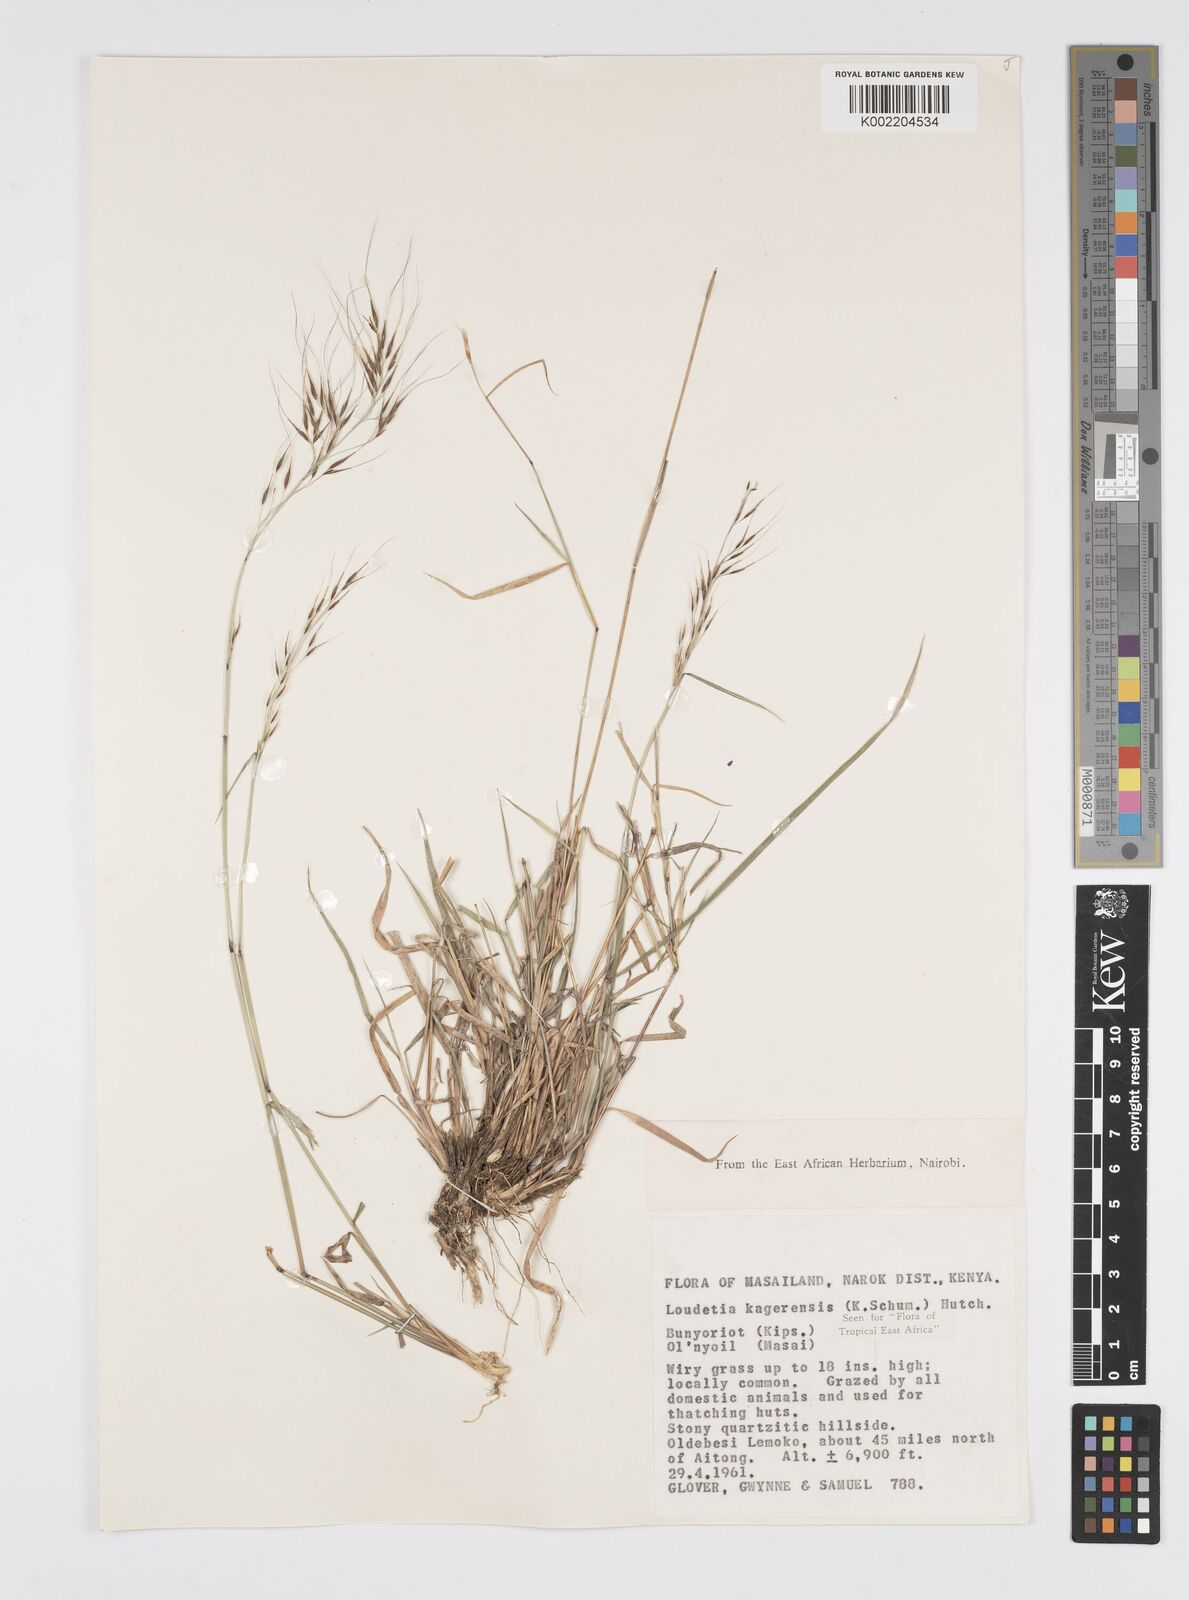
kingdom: Plantae
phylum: Tracheophyta
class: Liliopsida
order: Poales
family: Poaceae
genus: Loudetia
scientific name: Loudetia kagerensis
